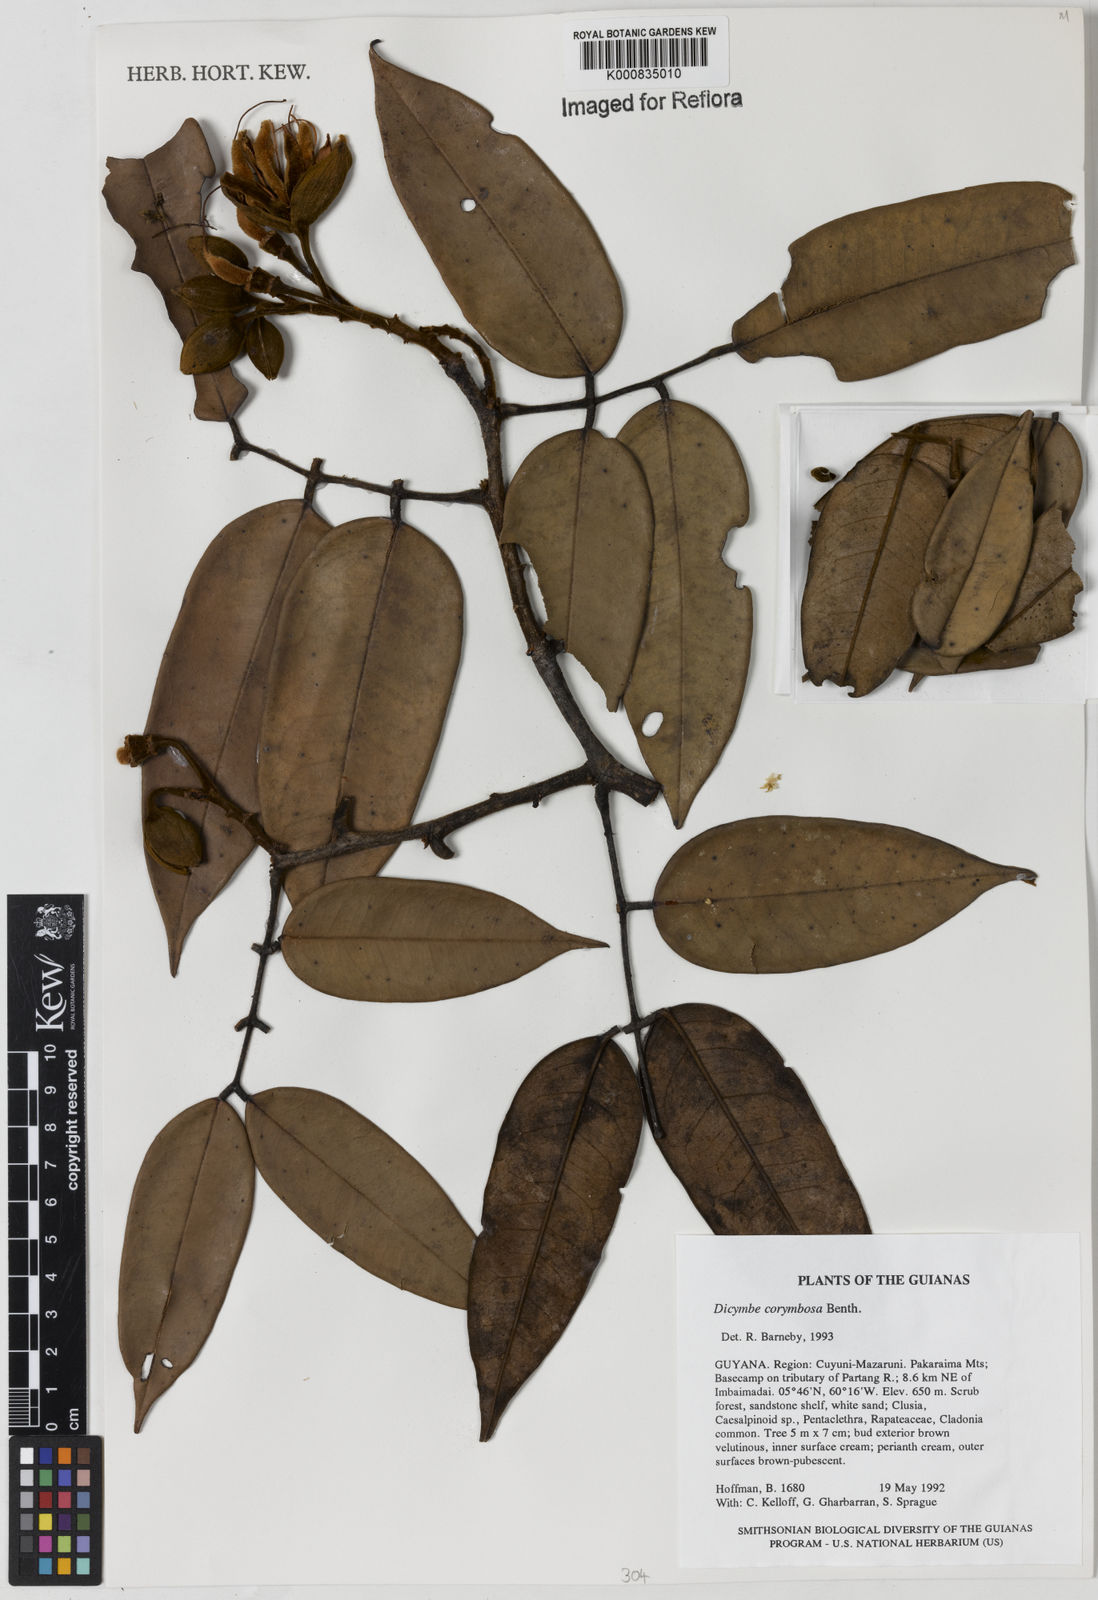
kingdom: Plantae
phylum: Tracheophyta
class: Magnoliopsida
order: Fabales
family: Fabaceae
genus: Dicymbe
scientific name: Dicymbe corymbosa
